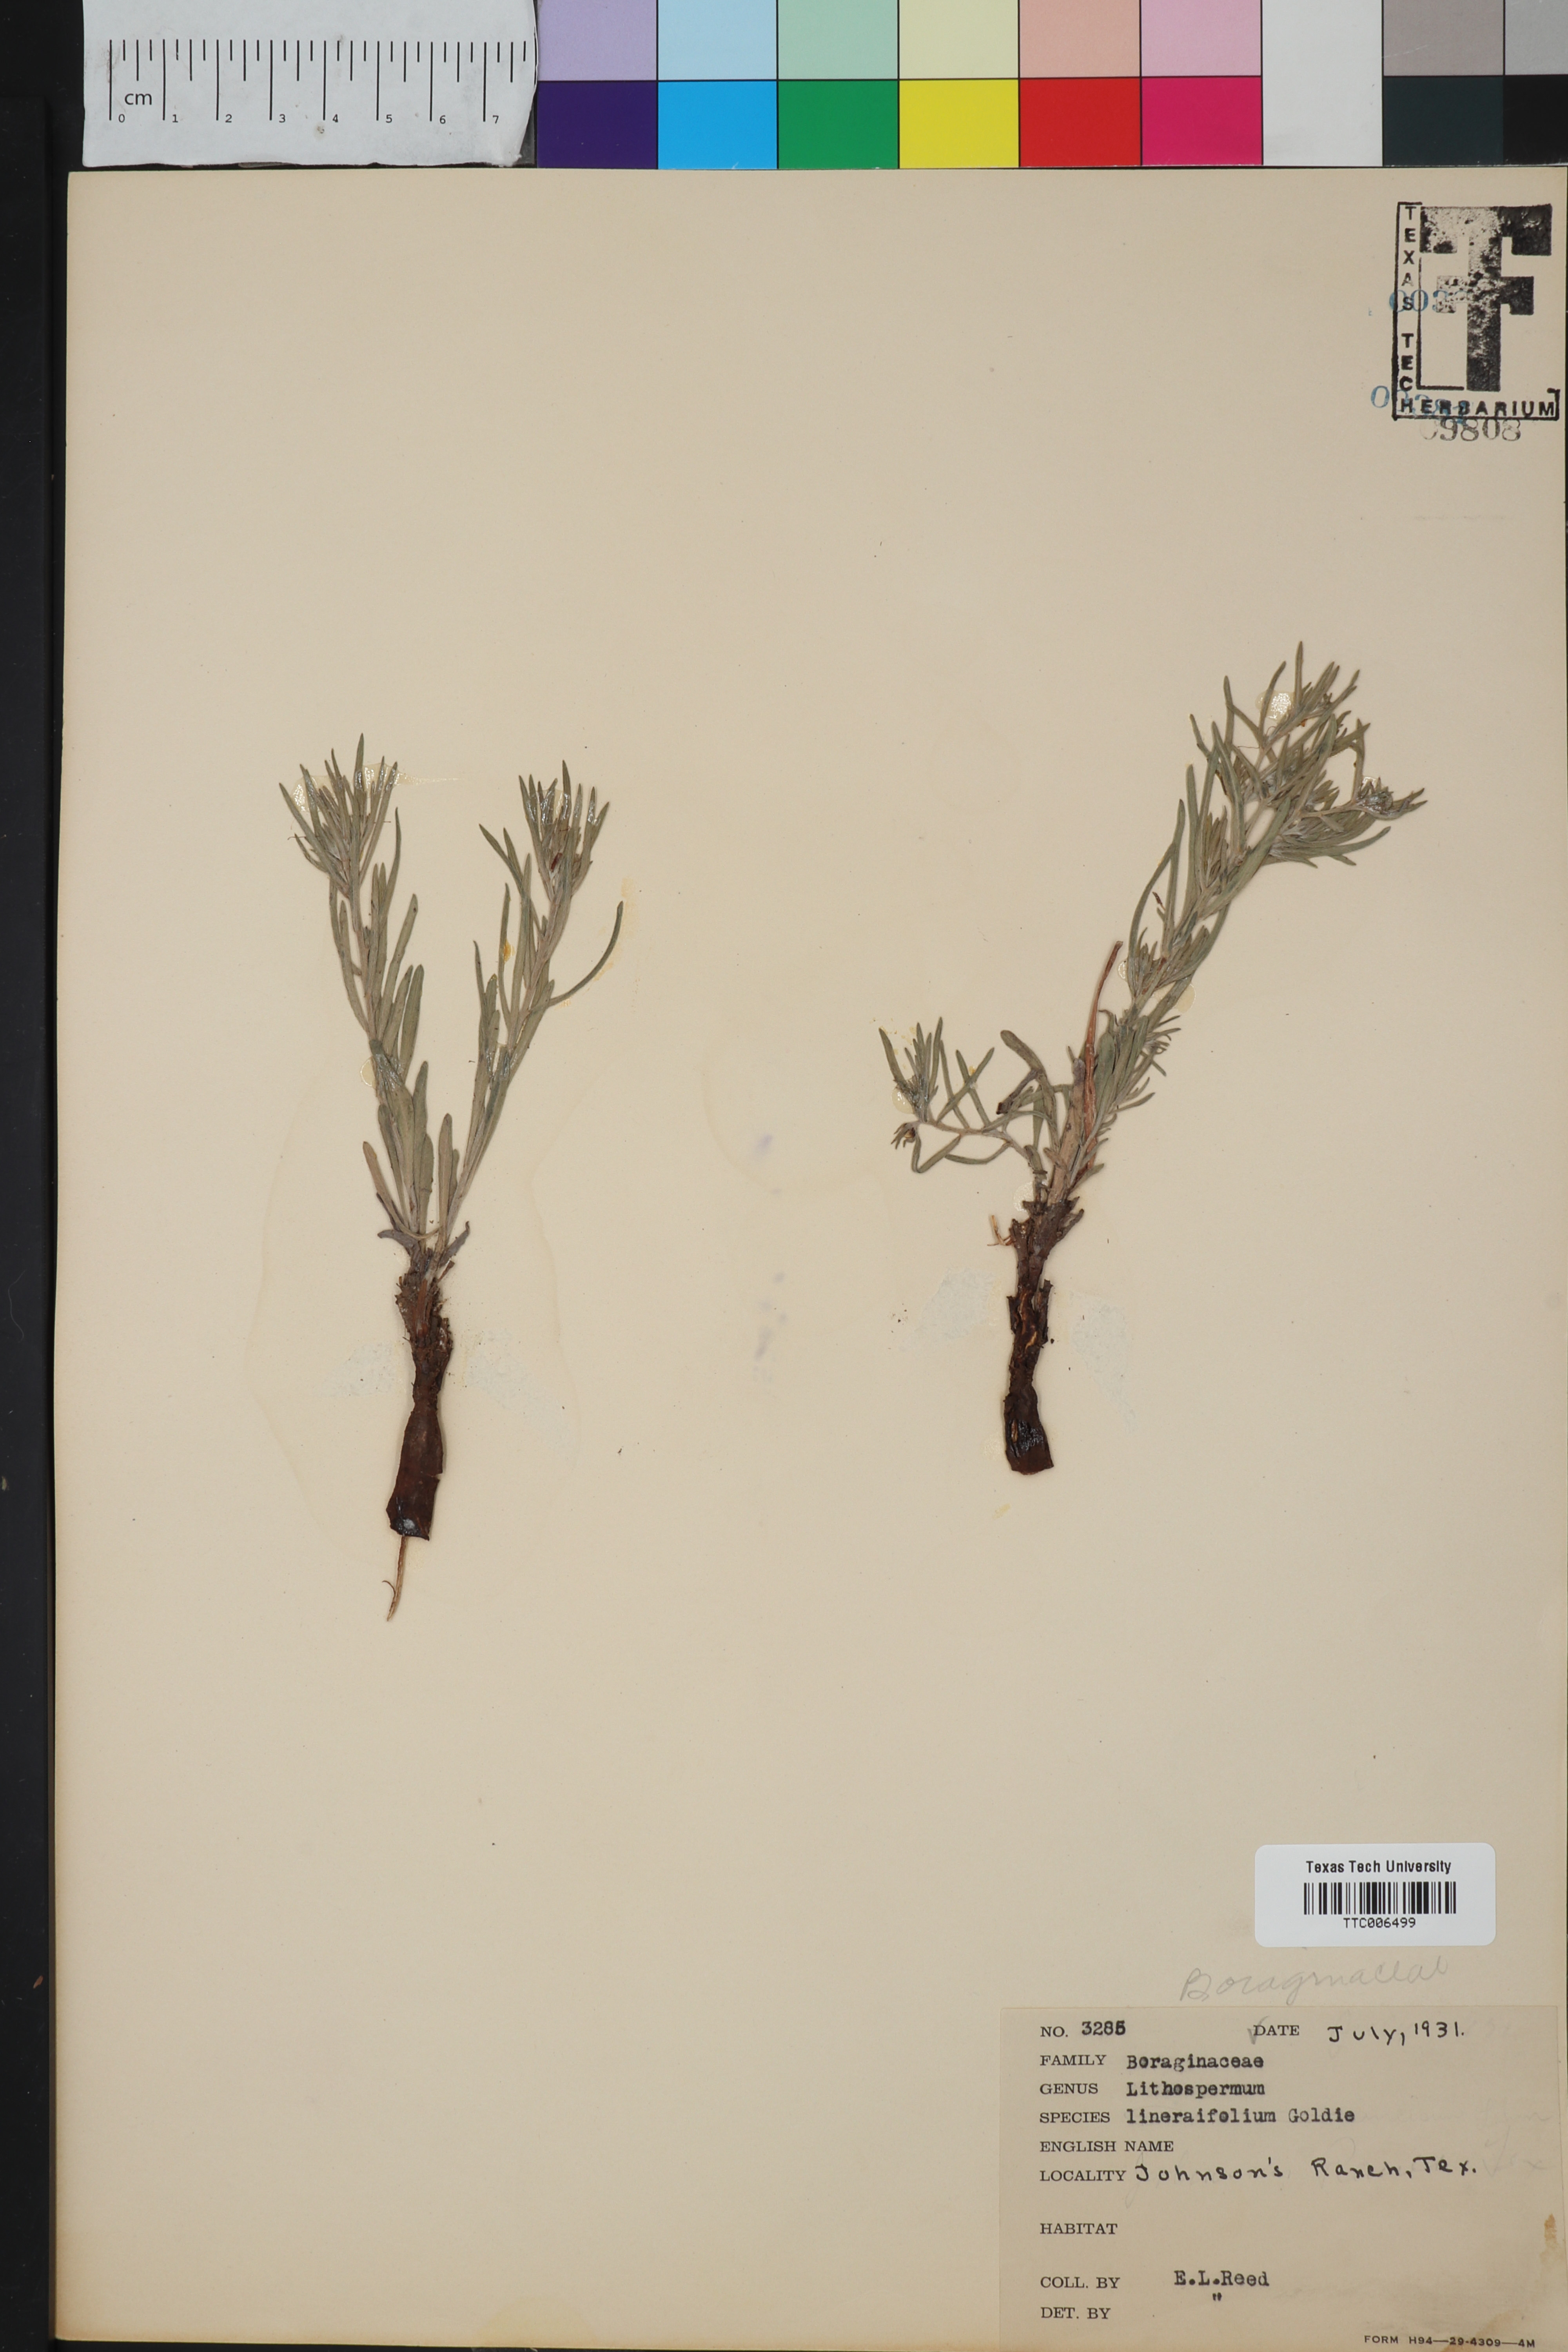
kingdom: Plantae
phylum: Tracheophyta
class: Magnoliopsida
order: Boraginales
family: Boraginaceae
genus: Lithospermum
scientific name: Lithospermum incisum
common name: Fringed gromwell
